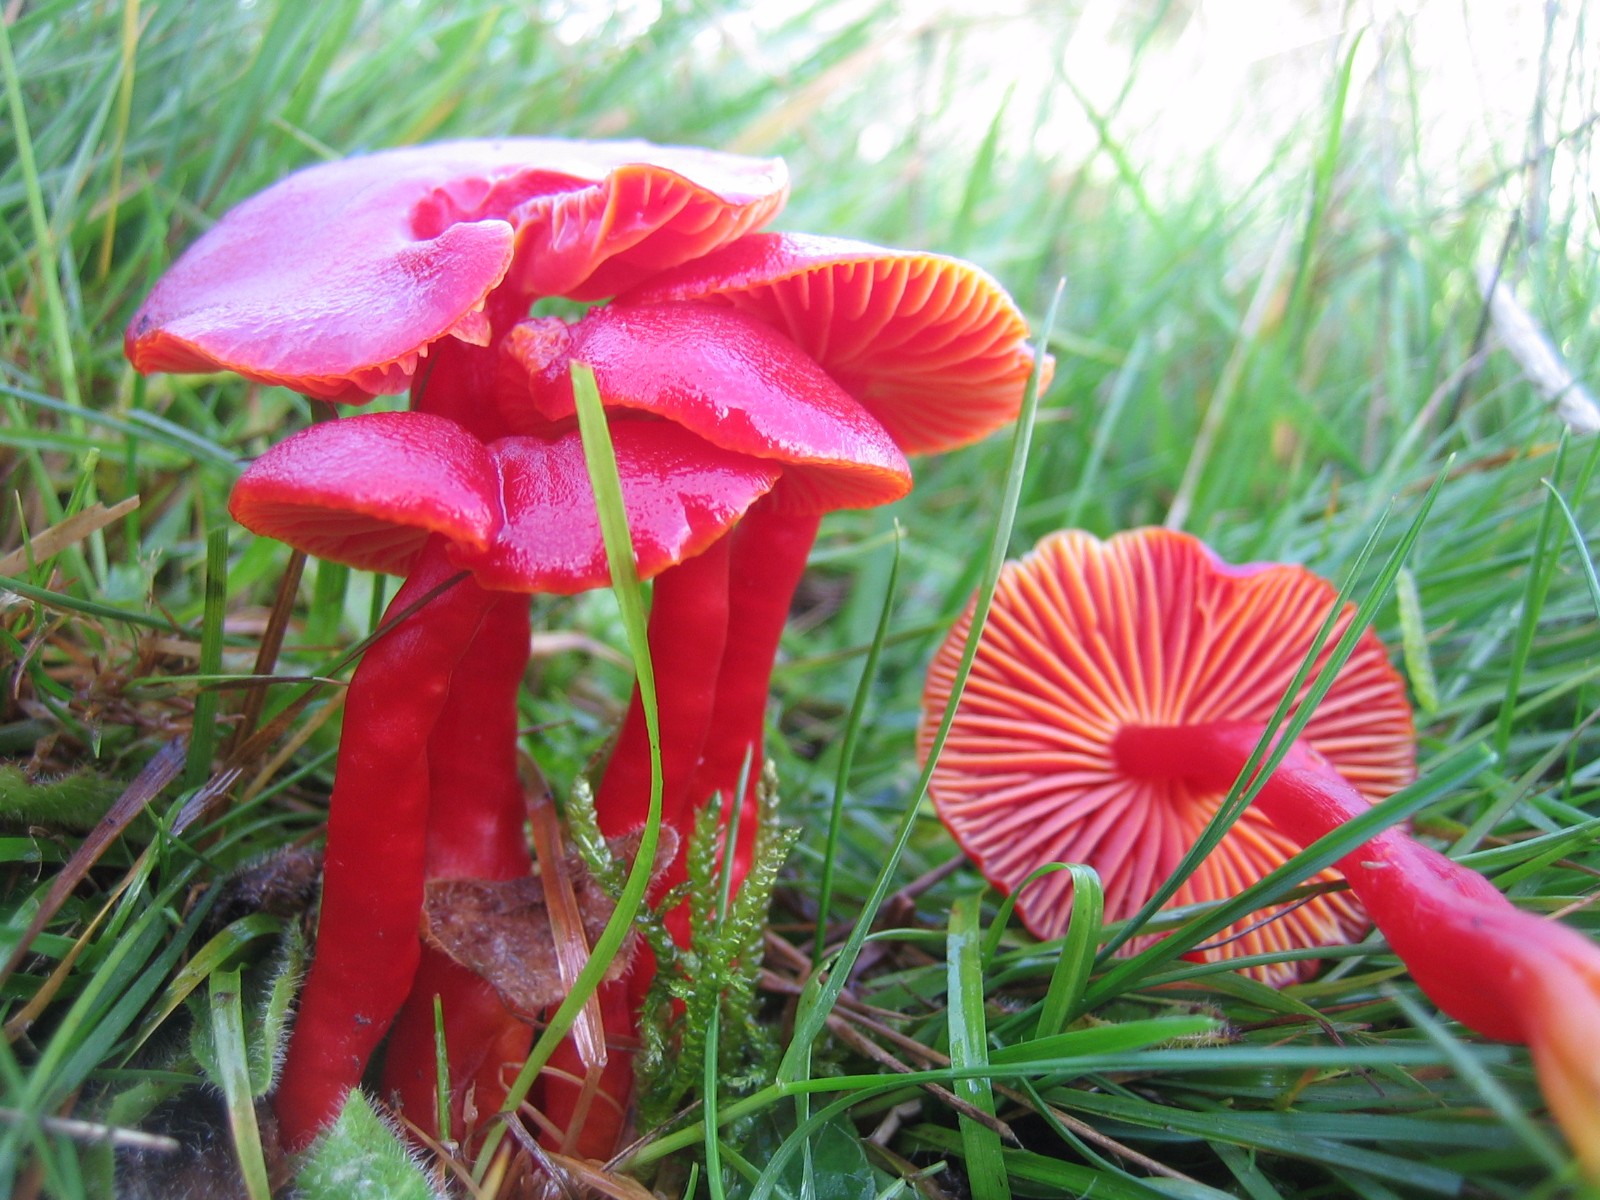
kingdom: Fungi
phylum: Basidiomycota
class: Agaricomycetes
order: Agaricales
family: Hygrophoraceae
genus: Hygrocybe
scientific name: Hygrocybe coccinea
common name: cinnober-vokshat
